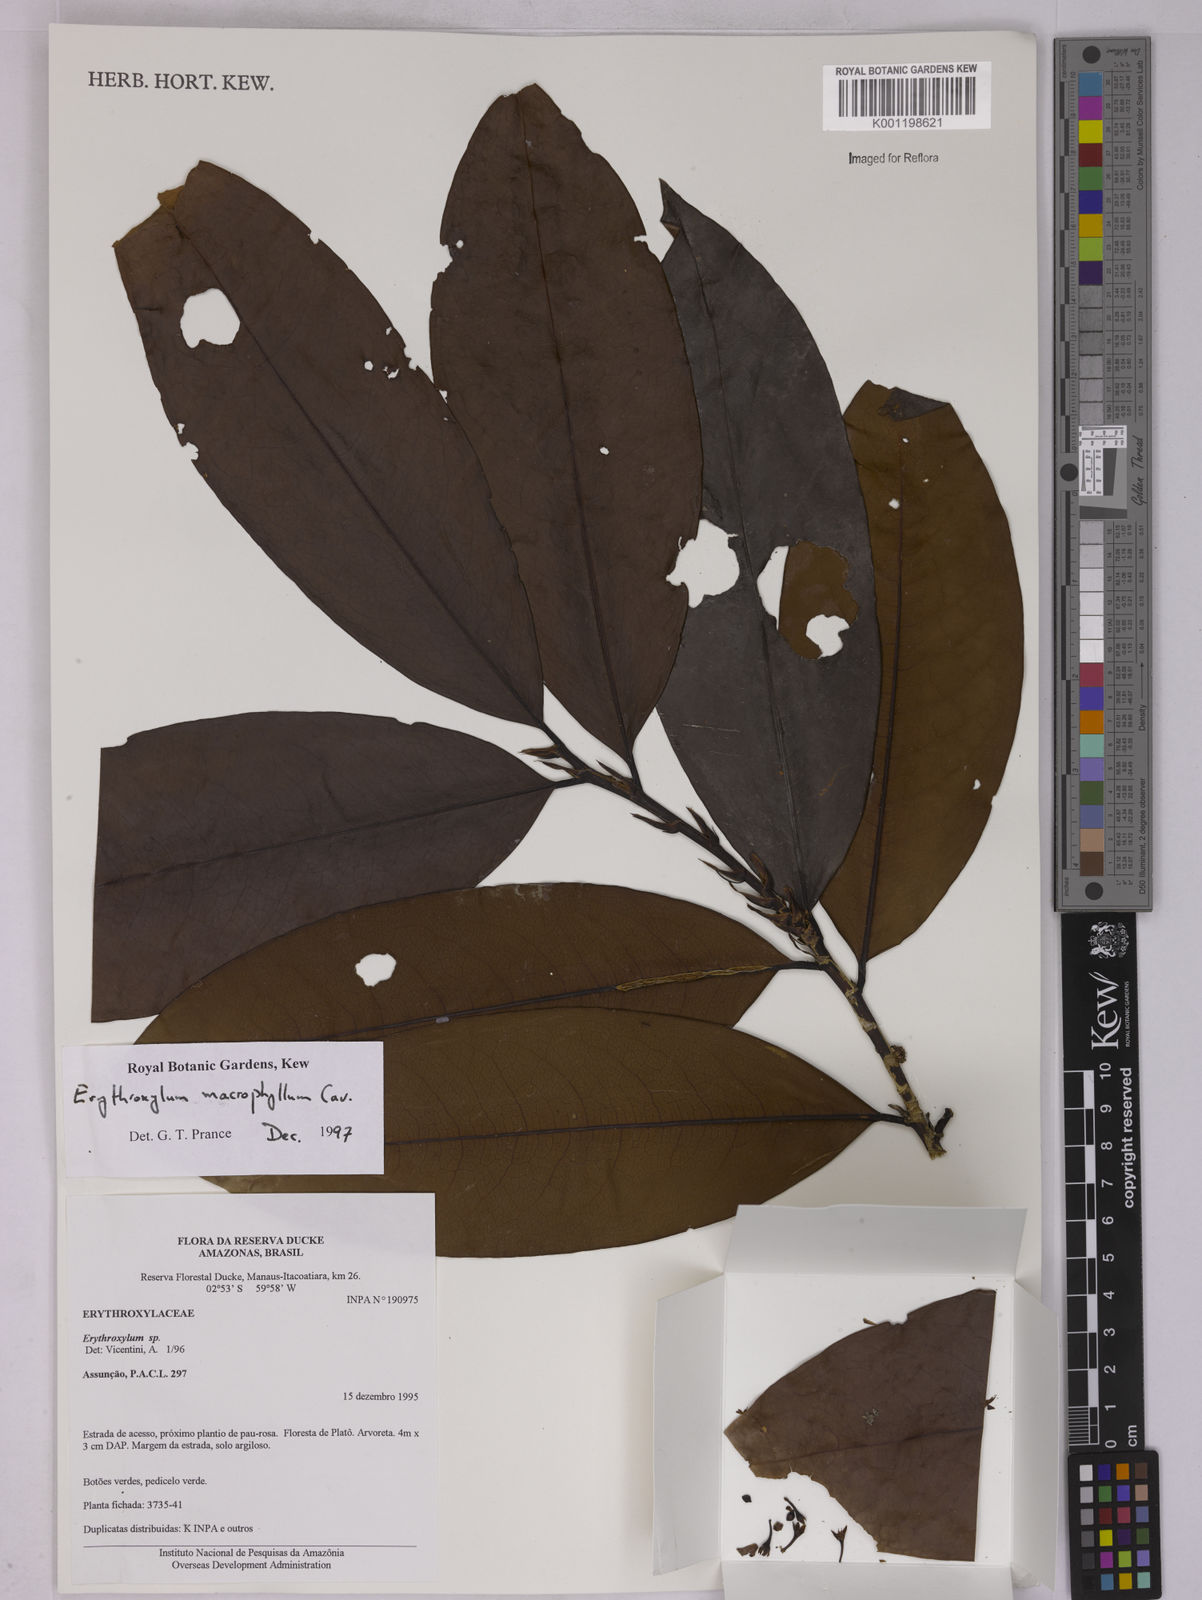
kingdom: Plantae
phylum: Tracheophyta
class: Magnoliopsida
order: Malpighiales
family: Erythroxylaceae
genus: Erythroxylum
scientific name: Erythroxylum macrophyllum
